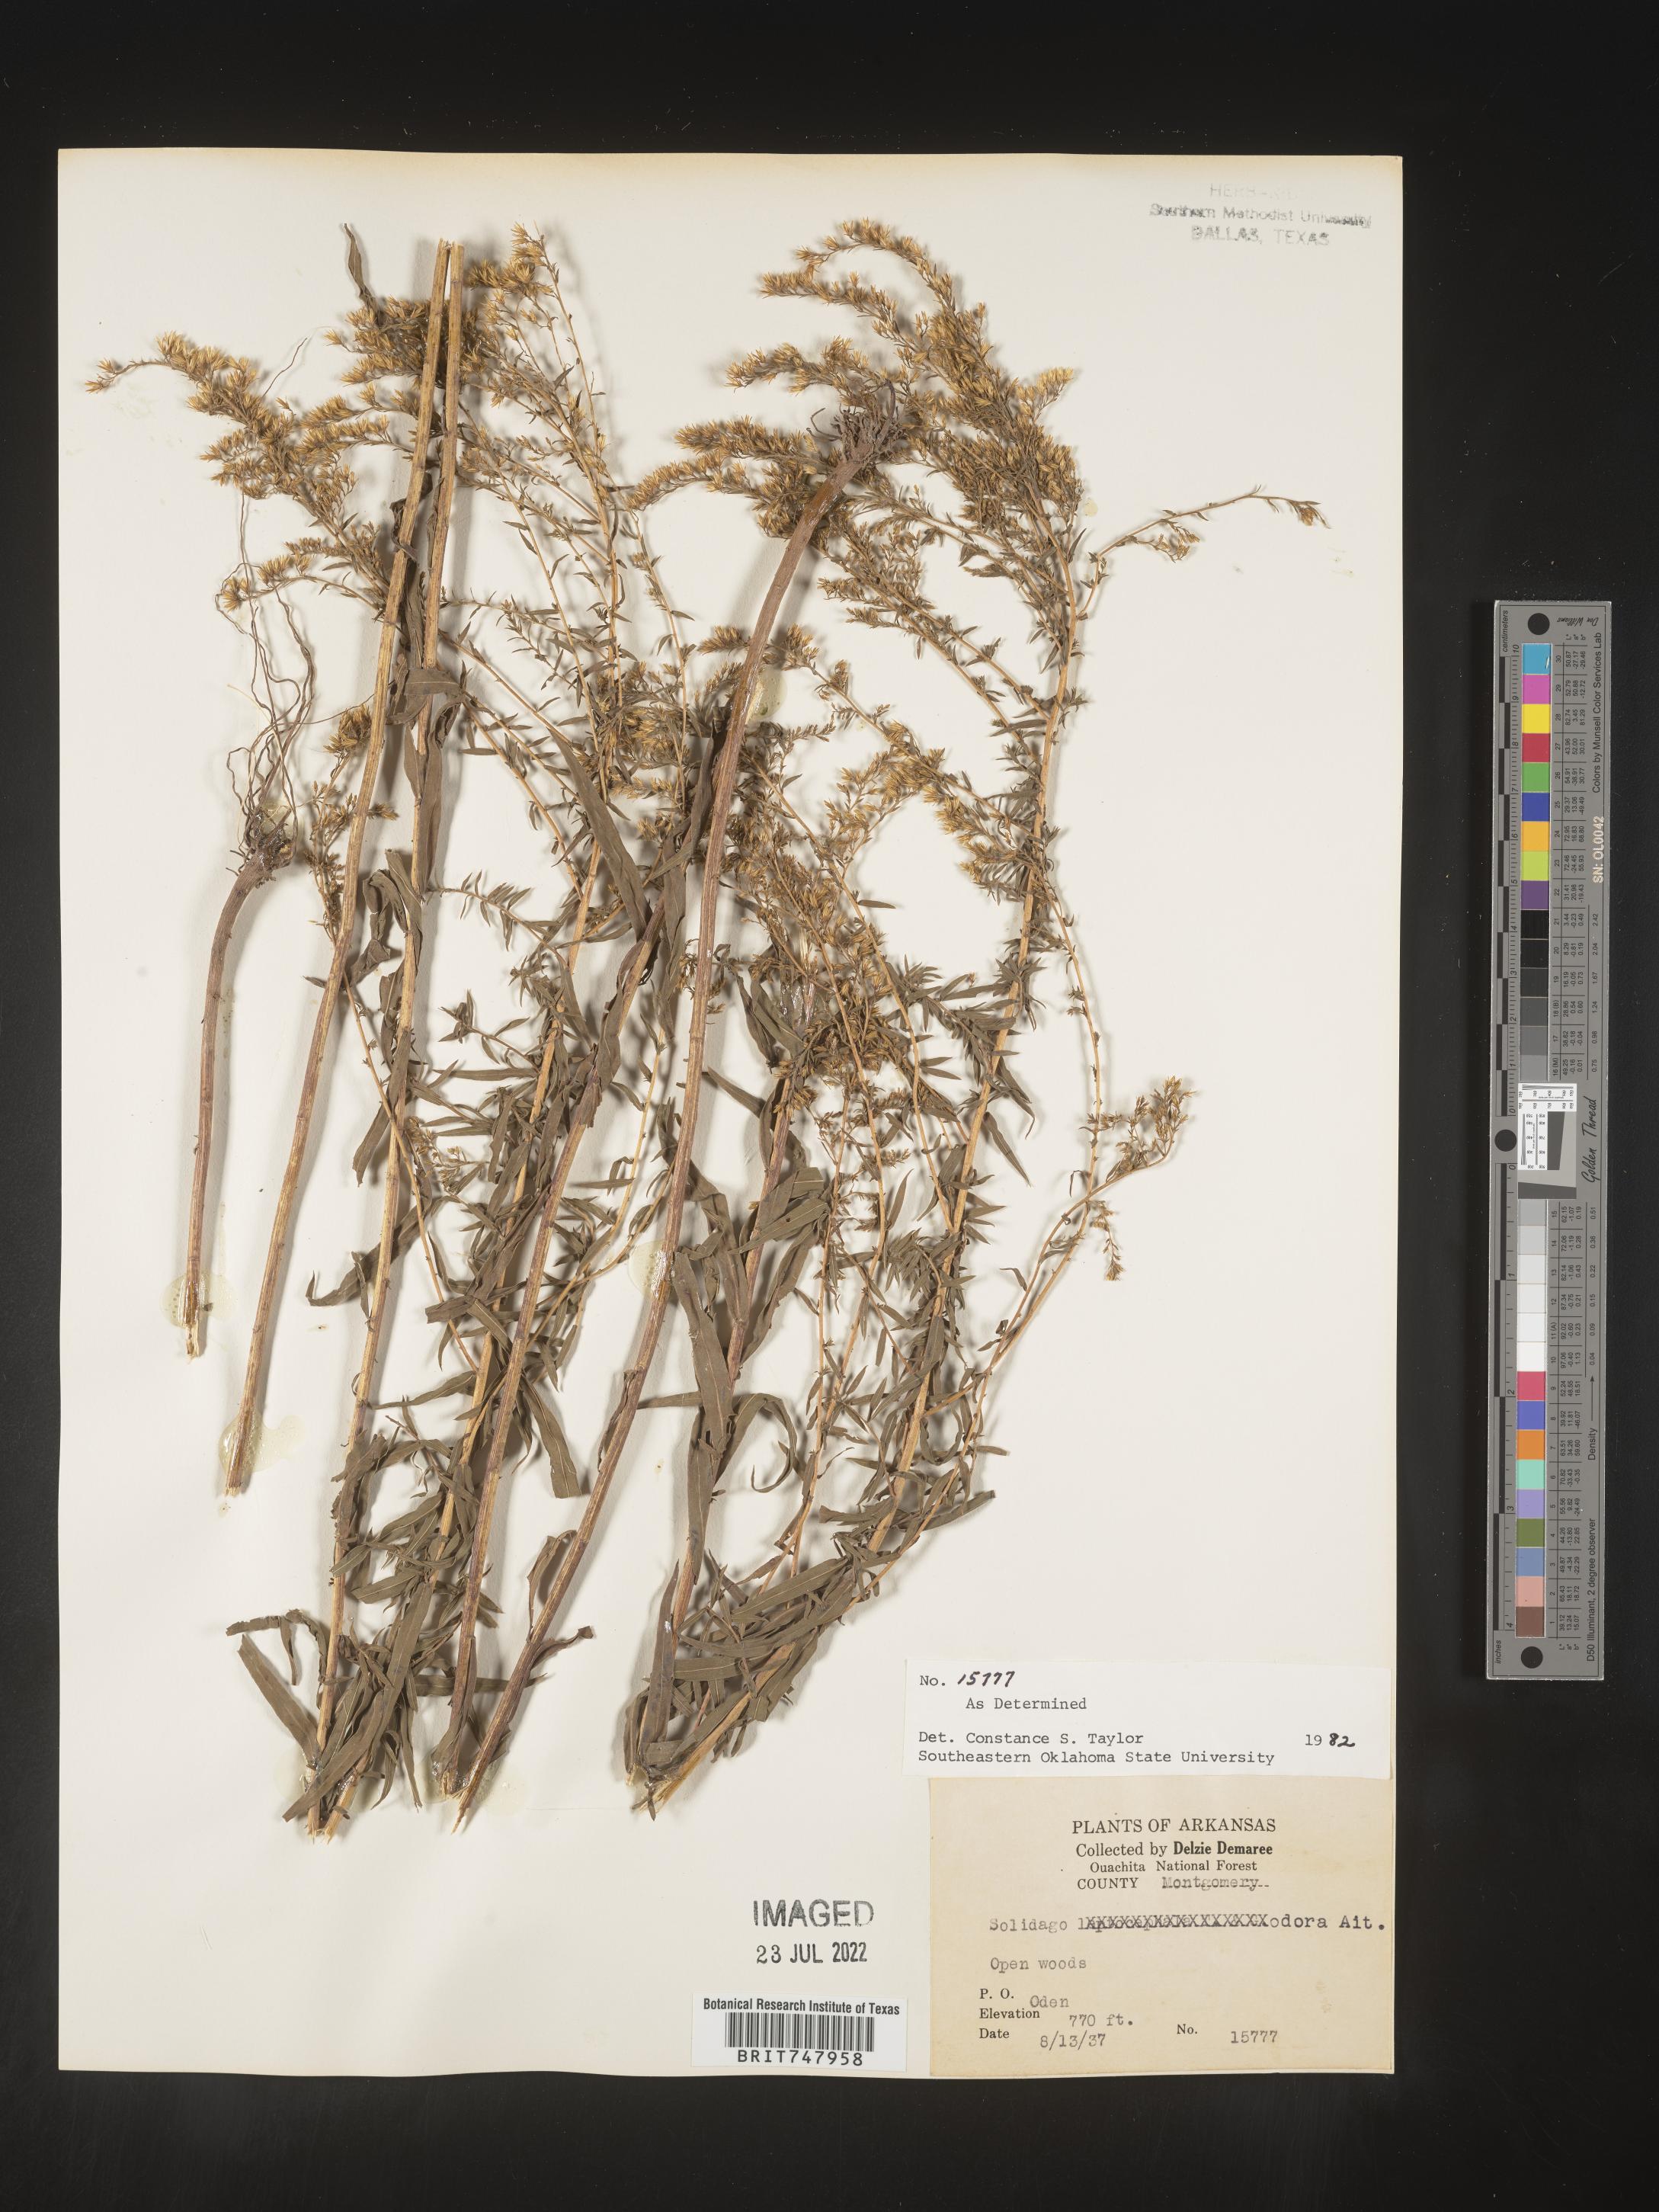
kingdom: Plantae
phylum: Tracheophyta
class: Magnoliopsida
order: Asterales
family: Asteraceae
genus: Solidago
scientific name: Solidago odora
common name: Anise-scented goldenrod
